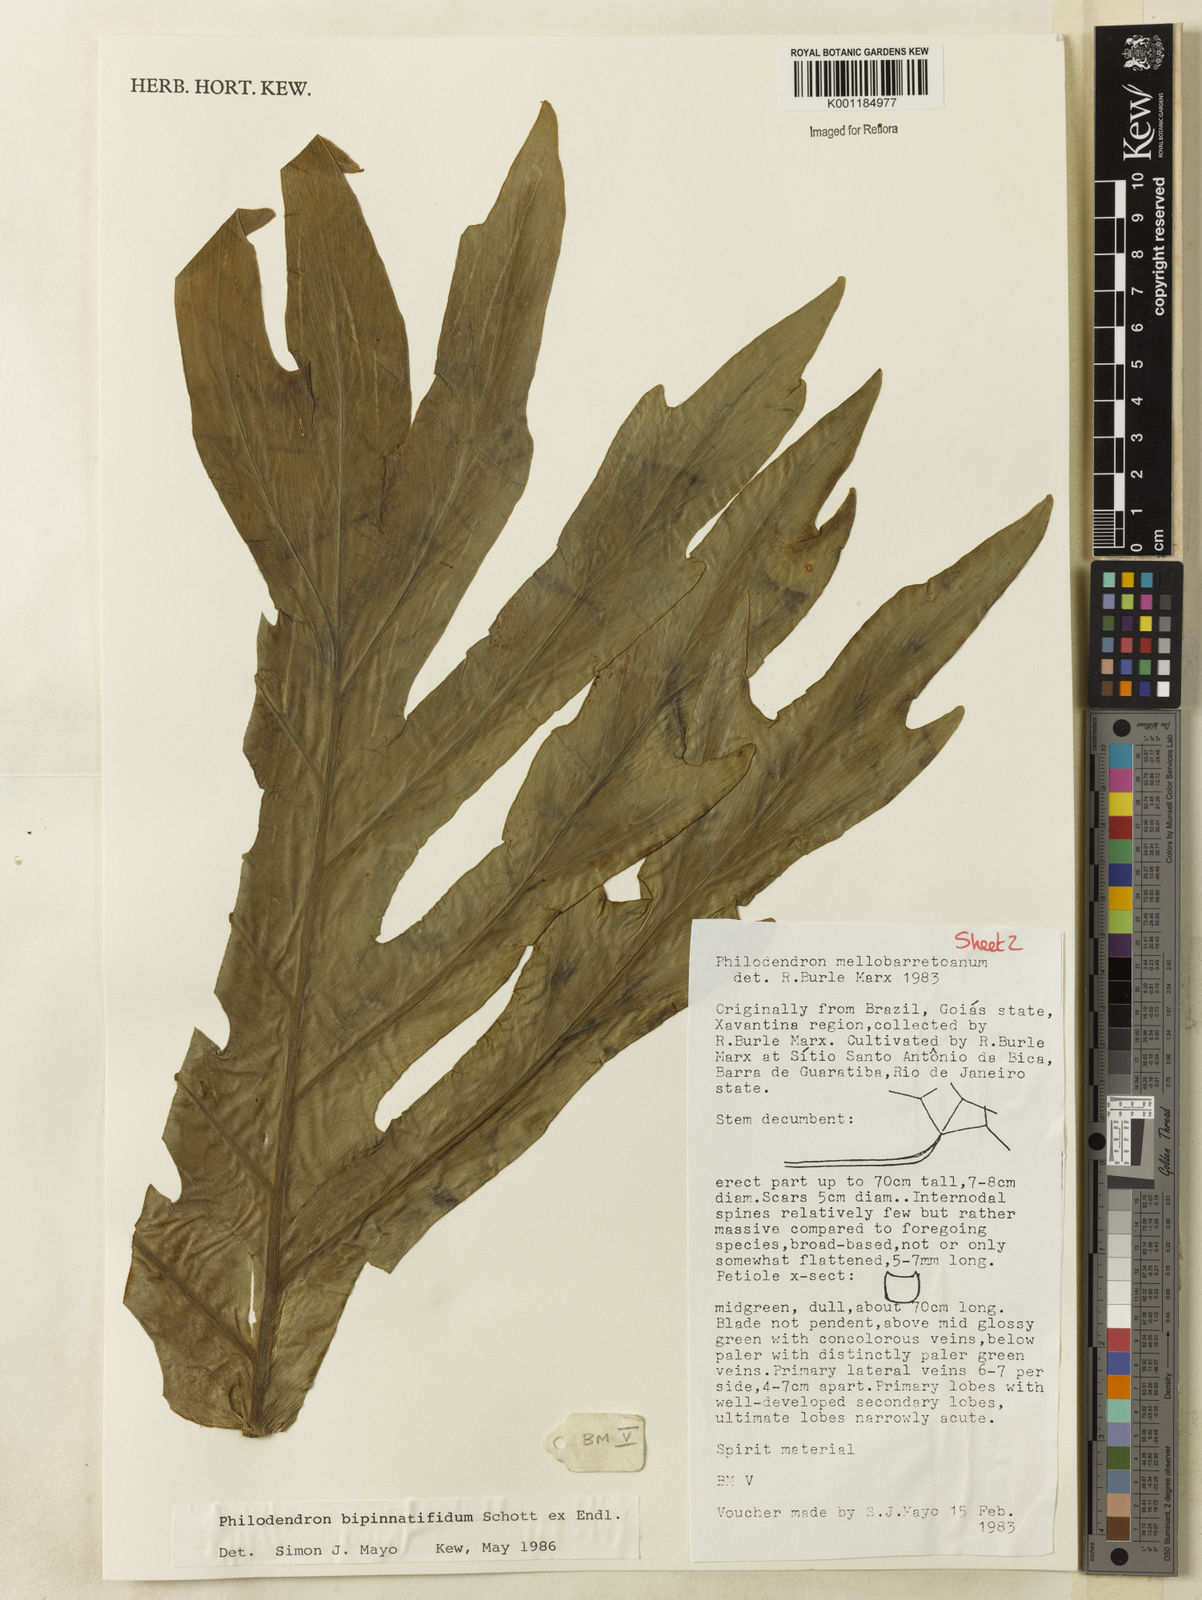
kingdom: Plantae
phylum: Tracheophyta
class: Liliopsida
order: Alismatales
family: Araceae
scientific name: Araceae
